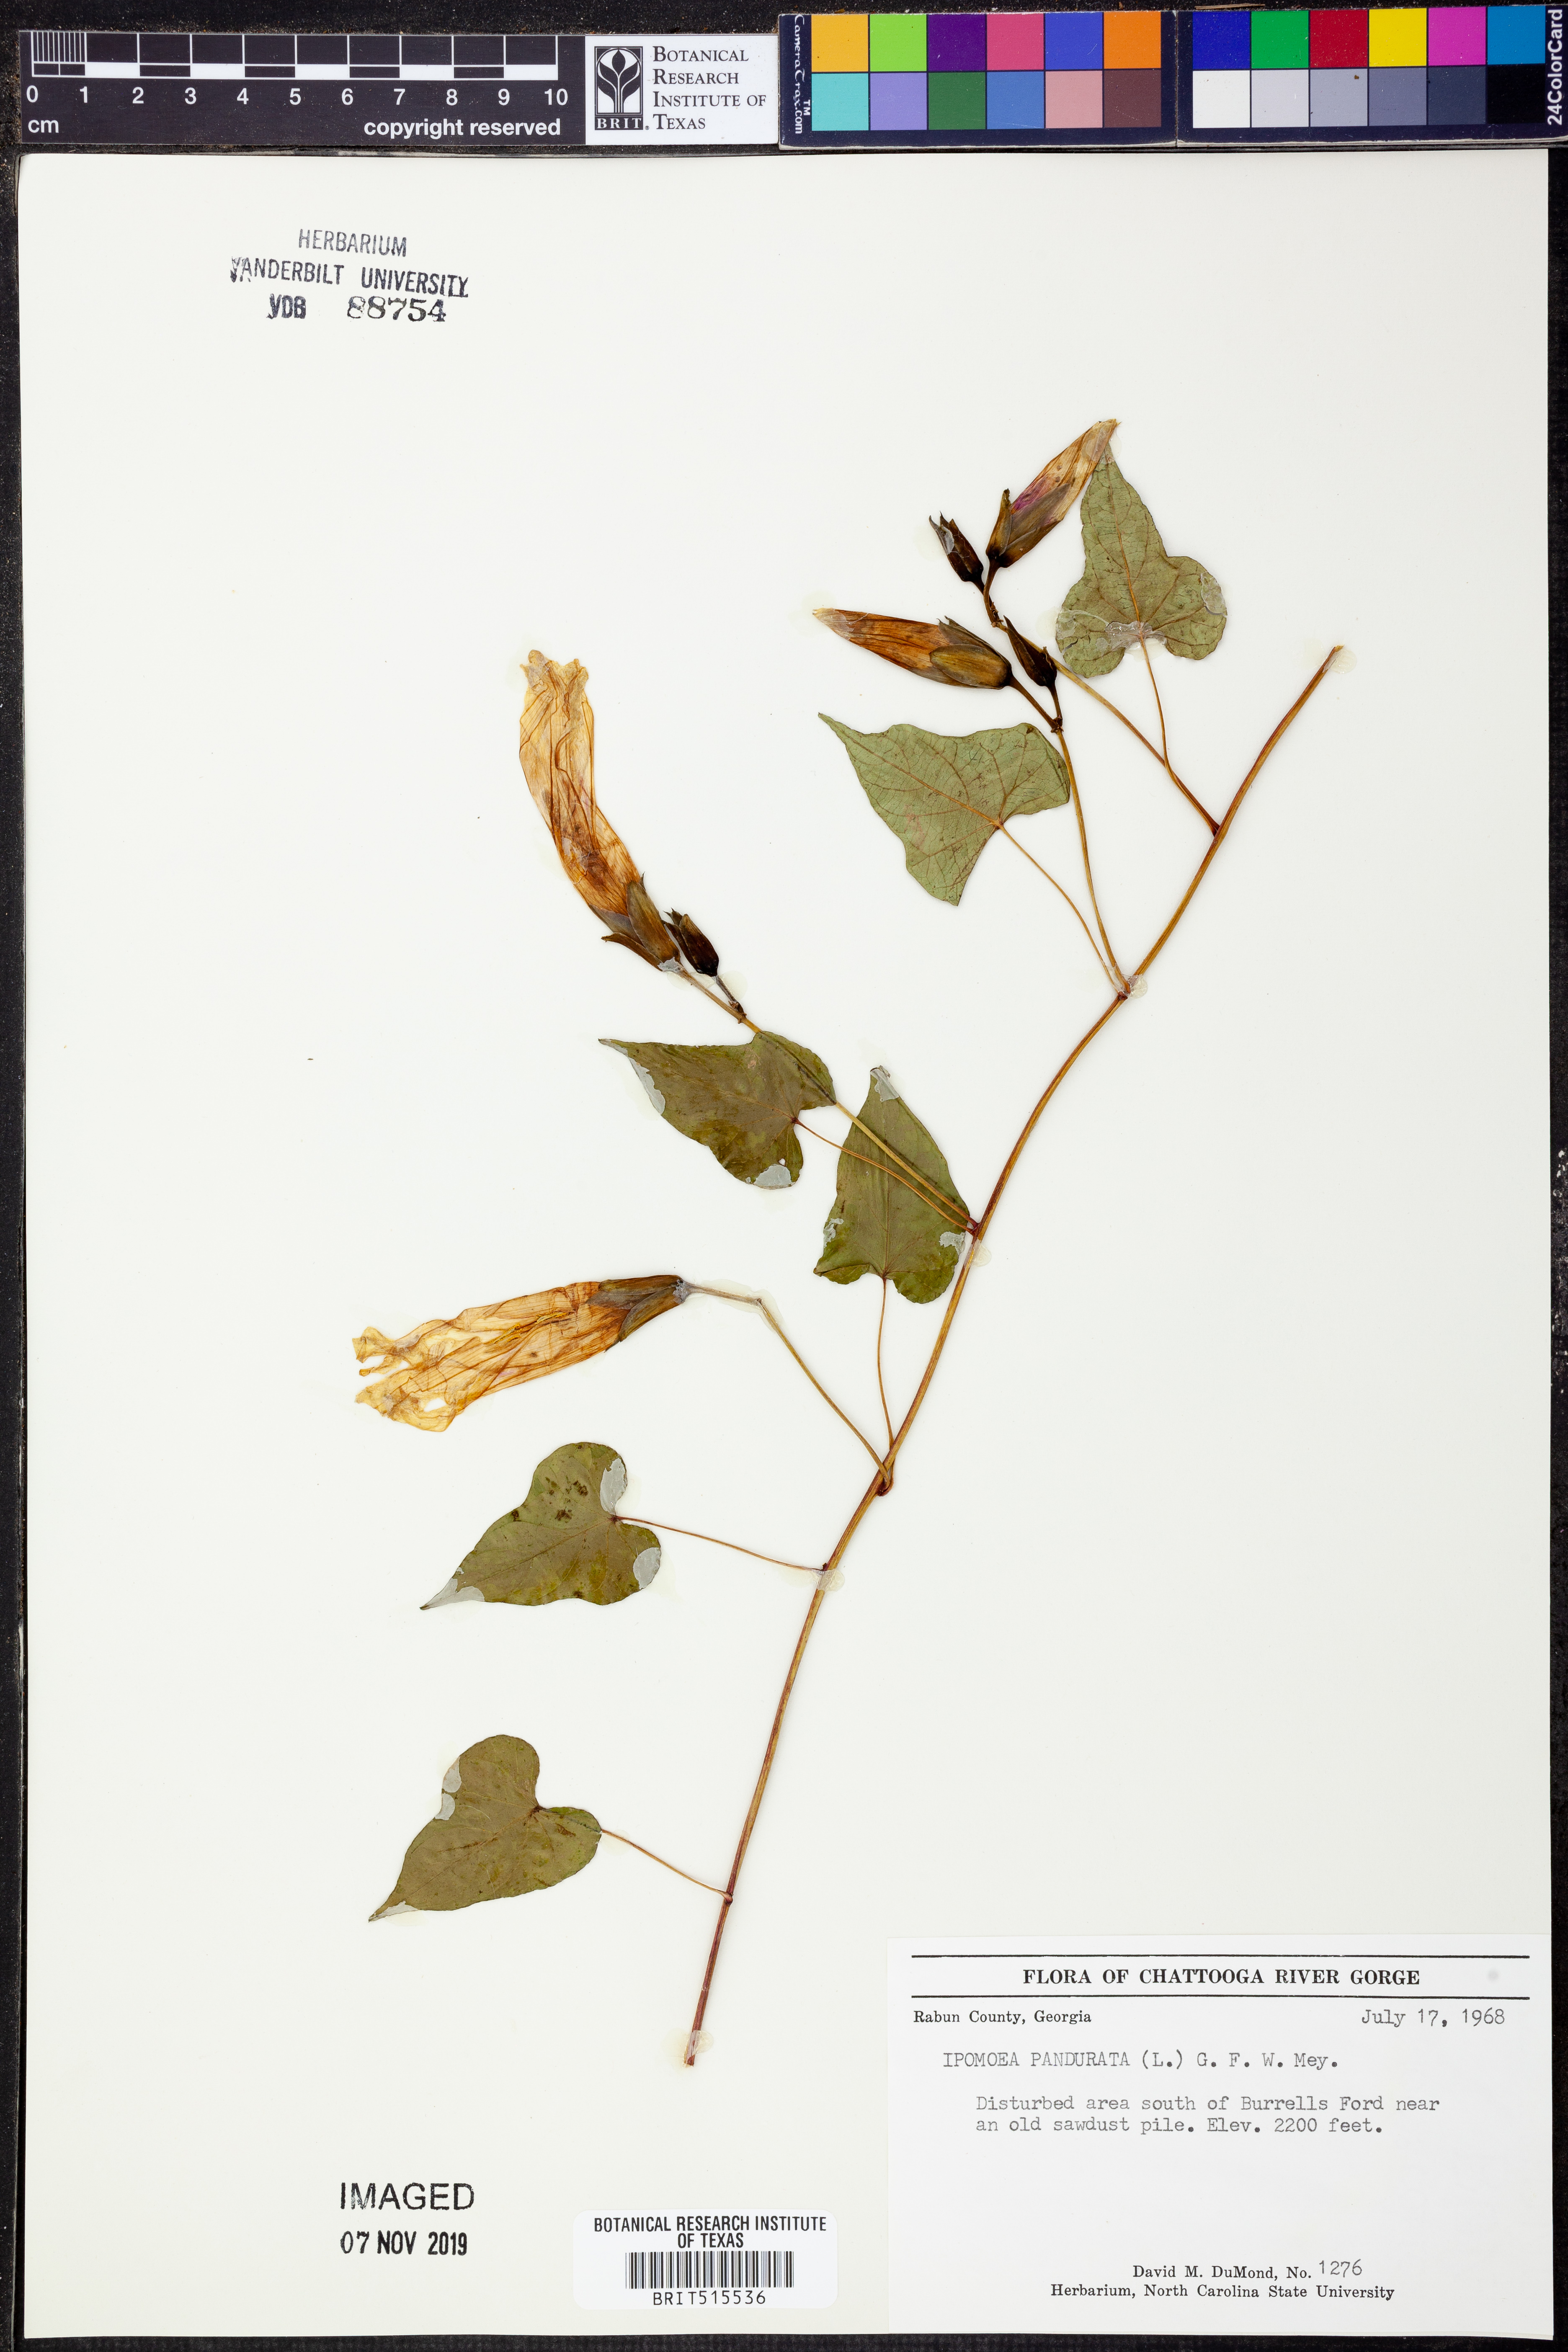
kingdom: Plantae
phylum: Tracheophyta
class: Magnoliopsida
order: Solanales
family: Convolvulaceae
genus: Ipomoea
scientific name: Ipomoea pandurata
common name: Man-of-the-earth
